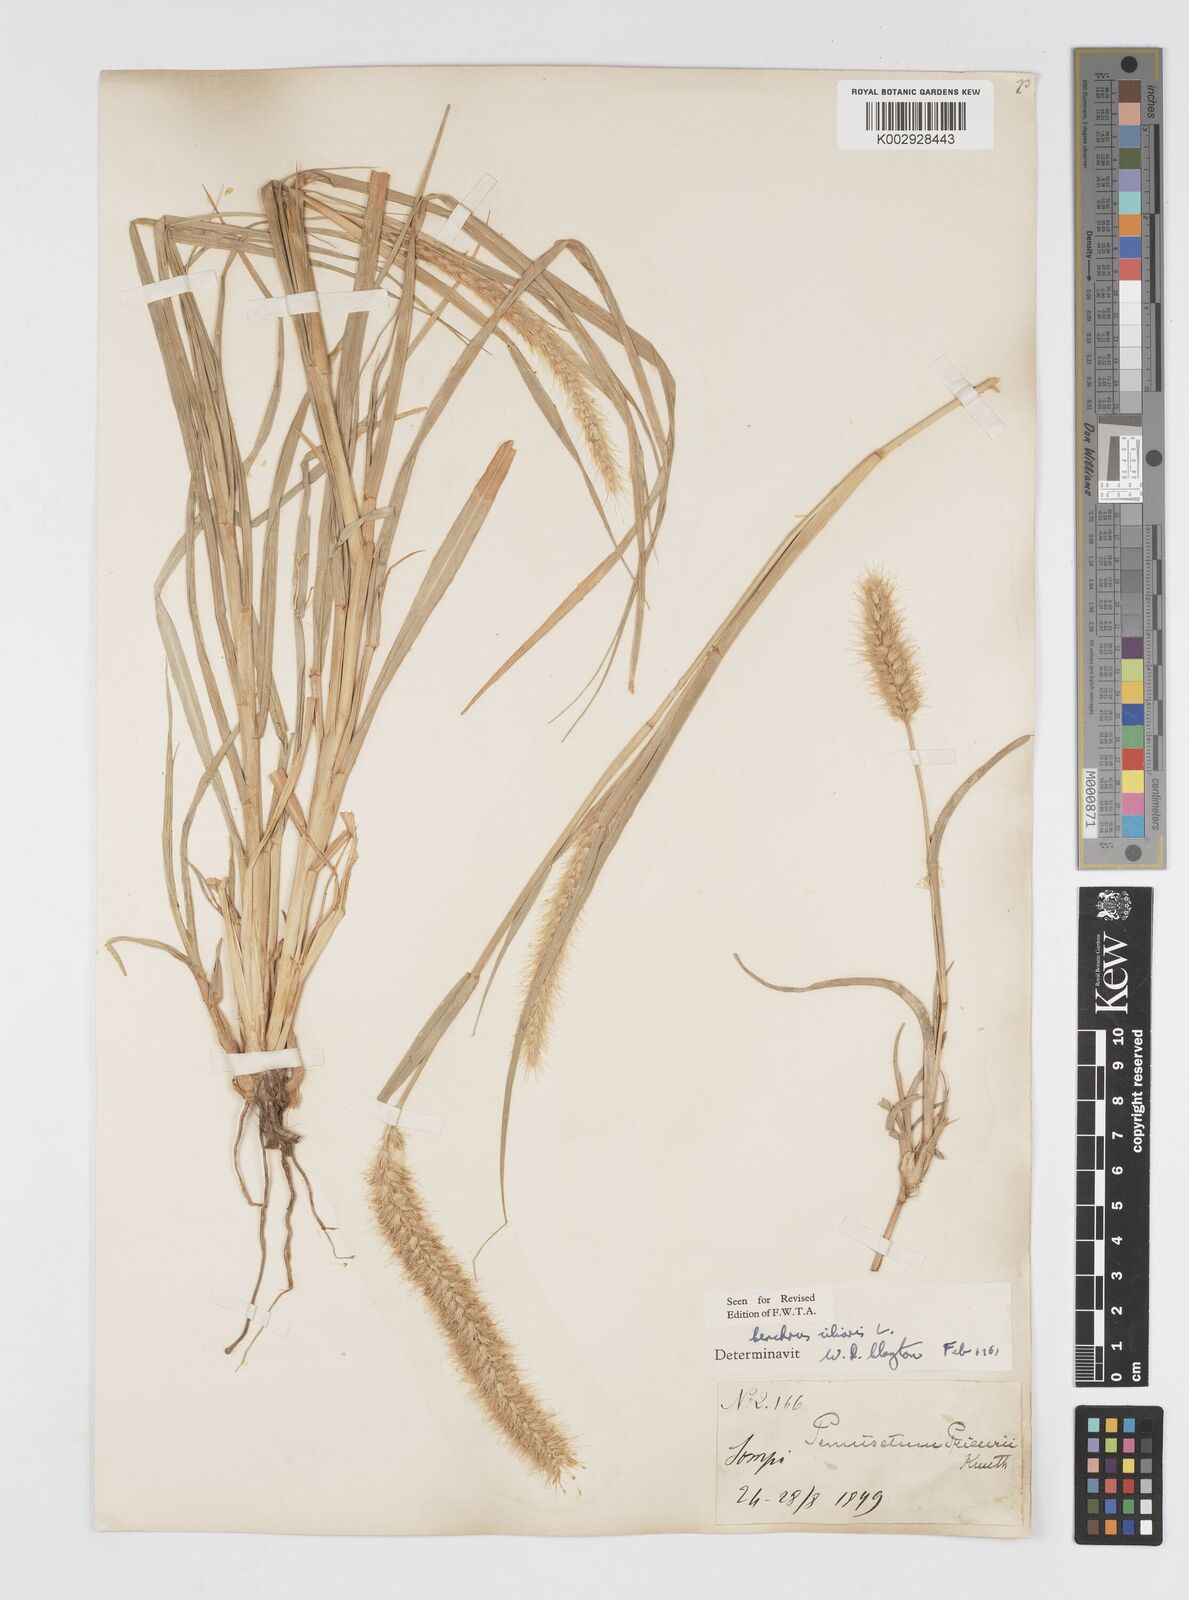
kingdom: Plantae
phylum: Tracheophyta
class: Liliopsida
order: Poales
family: Poaceae
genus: Cenchrus
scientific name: Cenchrus ciliaris
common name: Buffelgrass
